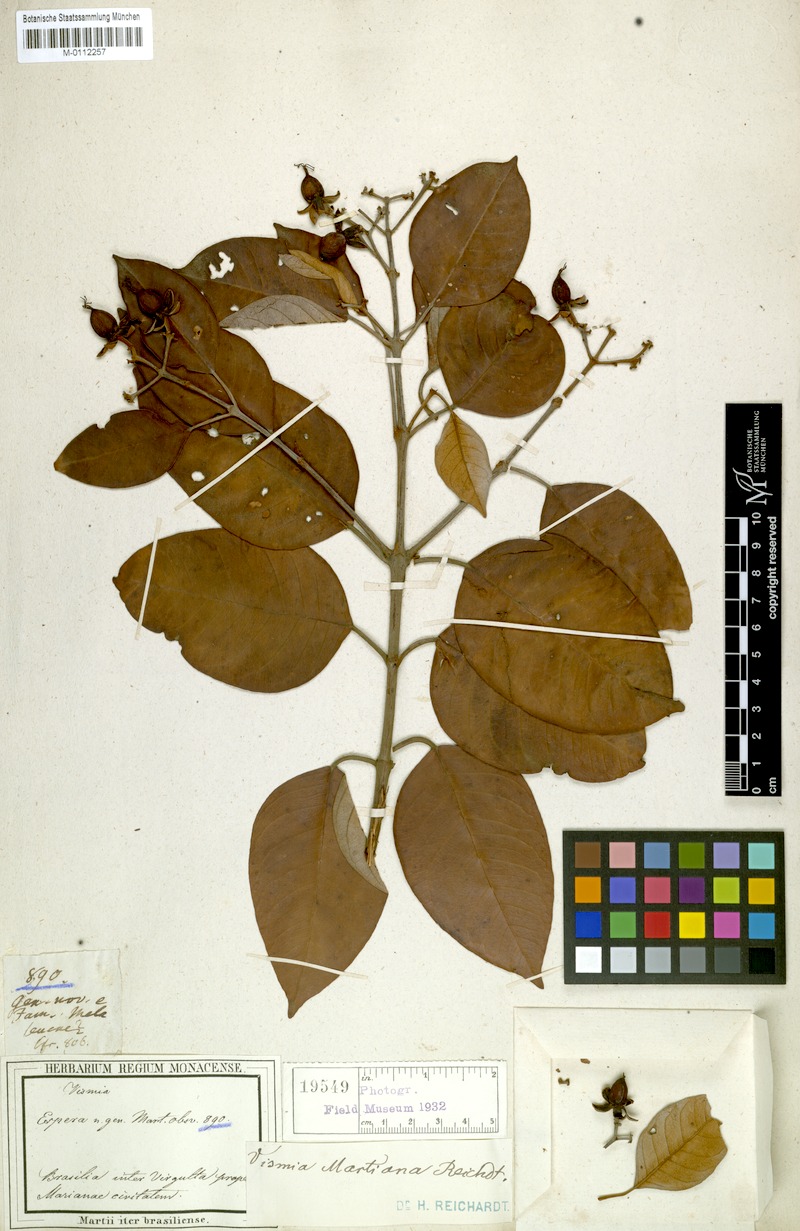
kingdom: Plantae
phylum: Tracheophyta
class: Magnoliopsida
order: Malpighiales
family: Hypericaceae
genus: Vismia
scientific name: Vismia martiana
